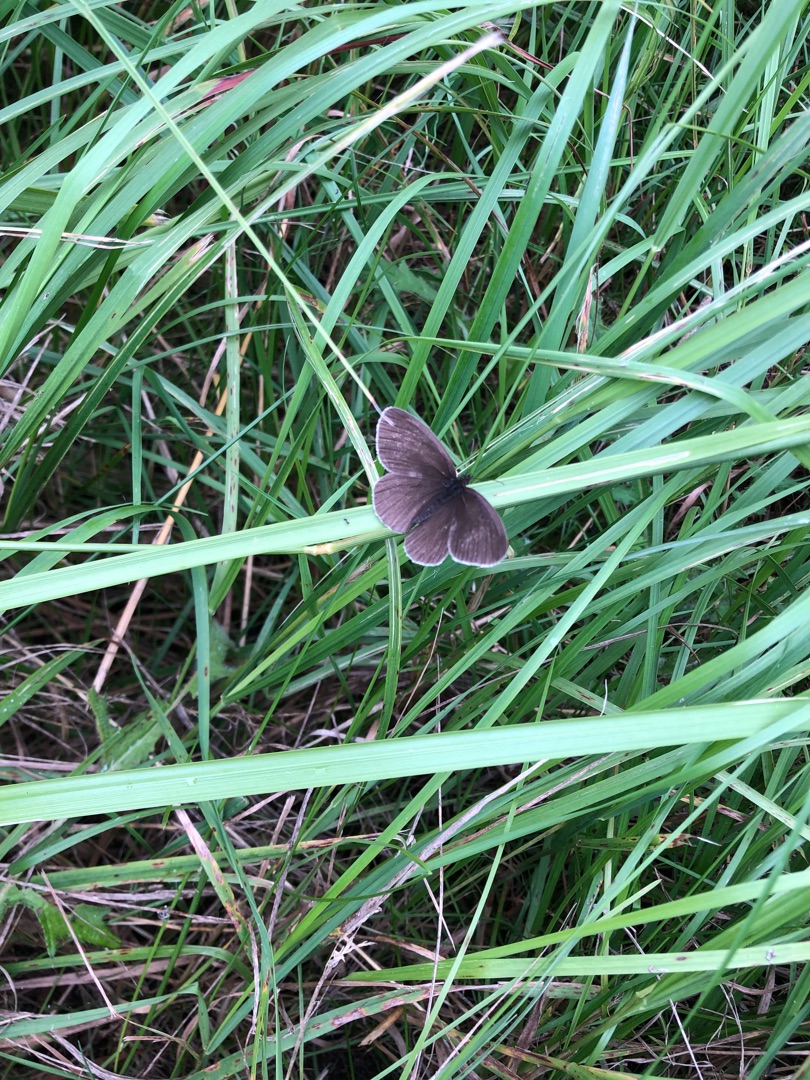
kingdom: Animalia
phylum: Arthropoda
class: Insecta
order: Lepidoptera
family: Nymphalidae
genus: Aphantopus
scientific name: Aphantopus hyperantus
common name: Engrandøje
